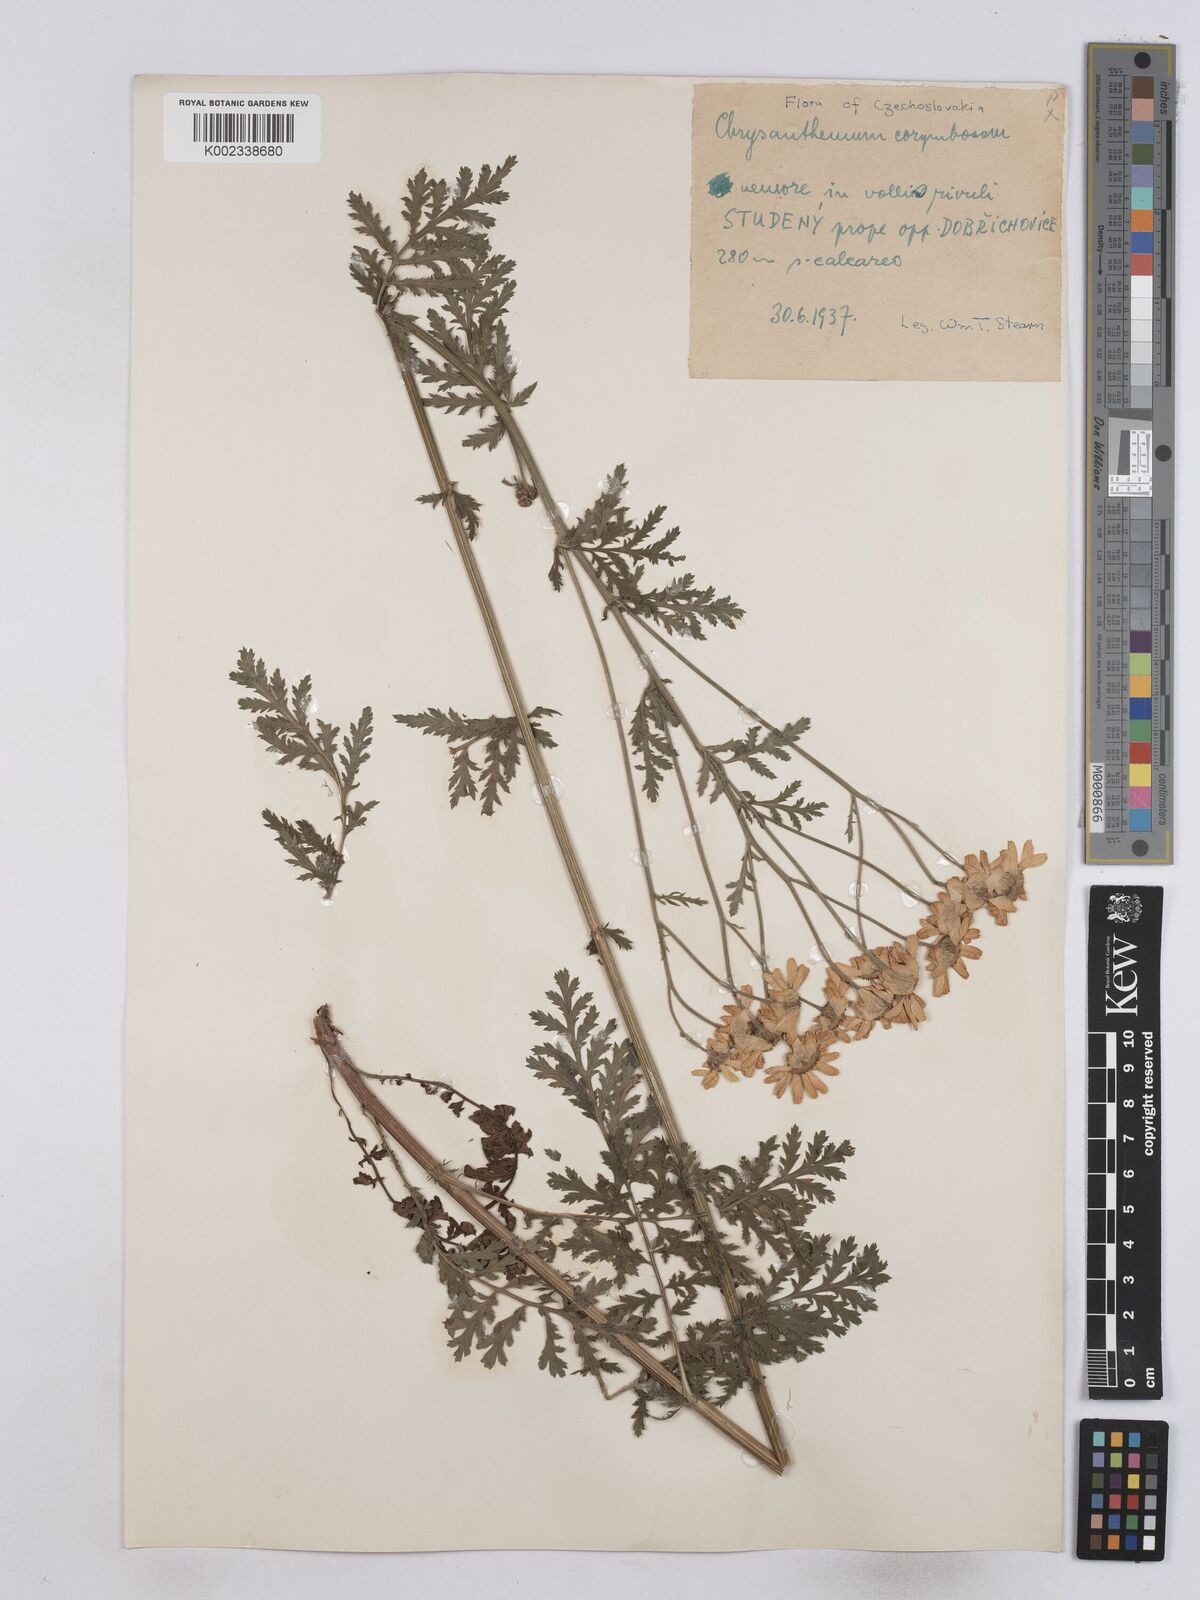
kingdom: Plantae
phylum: Tracheophyta
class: Magnoliopsida
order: Asterales
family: Asteraceae
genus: Tanacetum
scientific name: Tanacetum corymbosum
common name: Scentless feverfew
